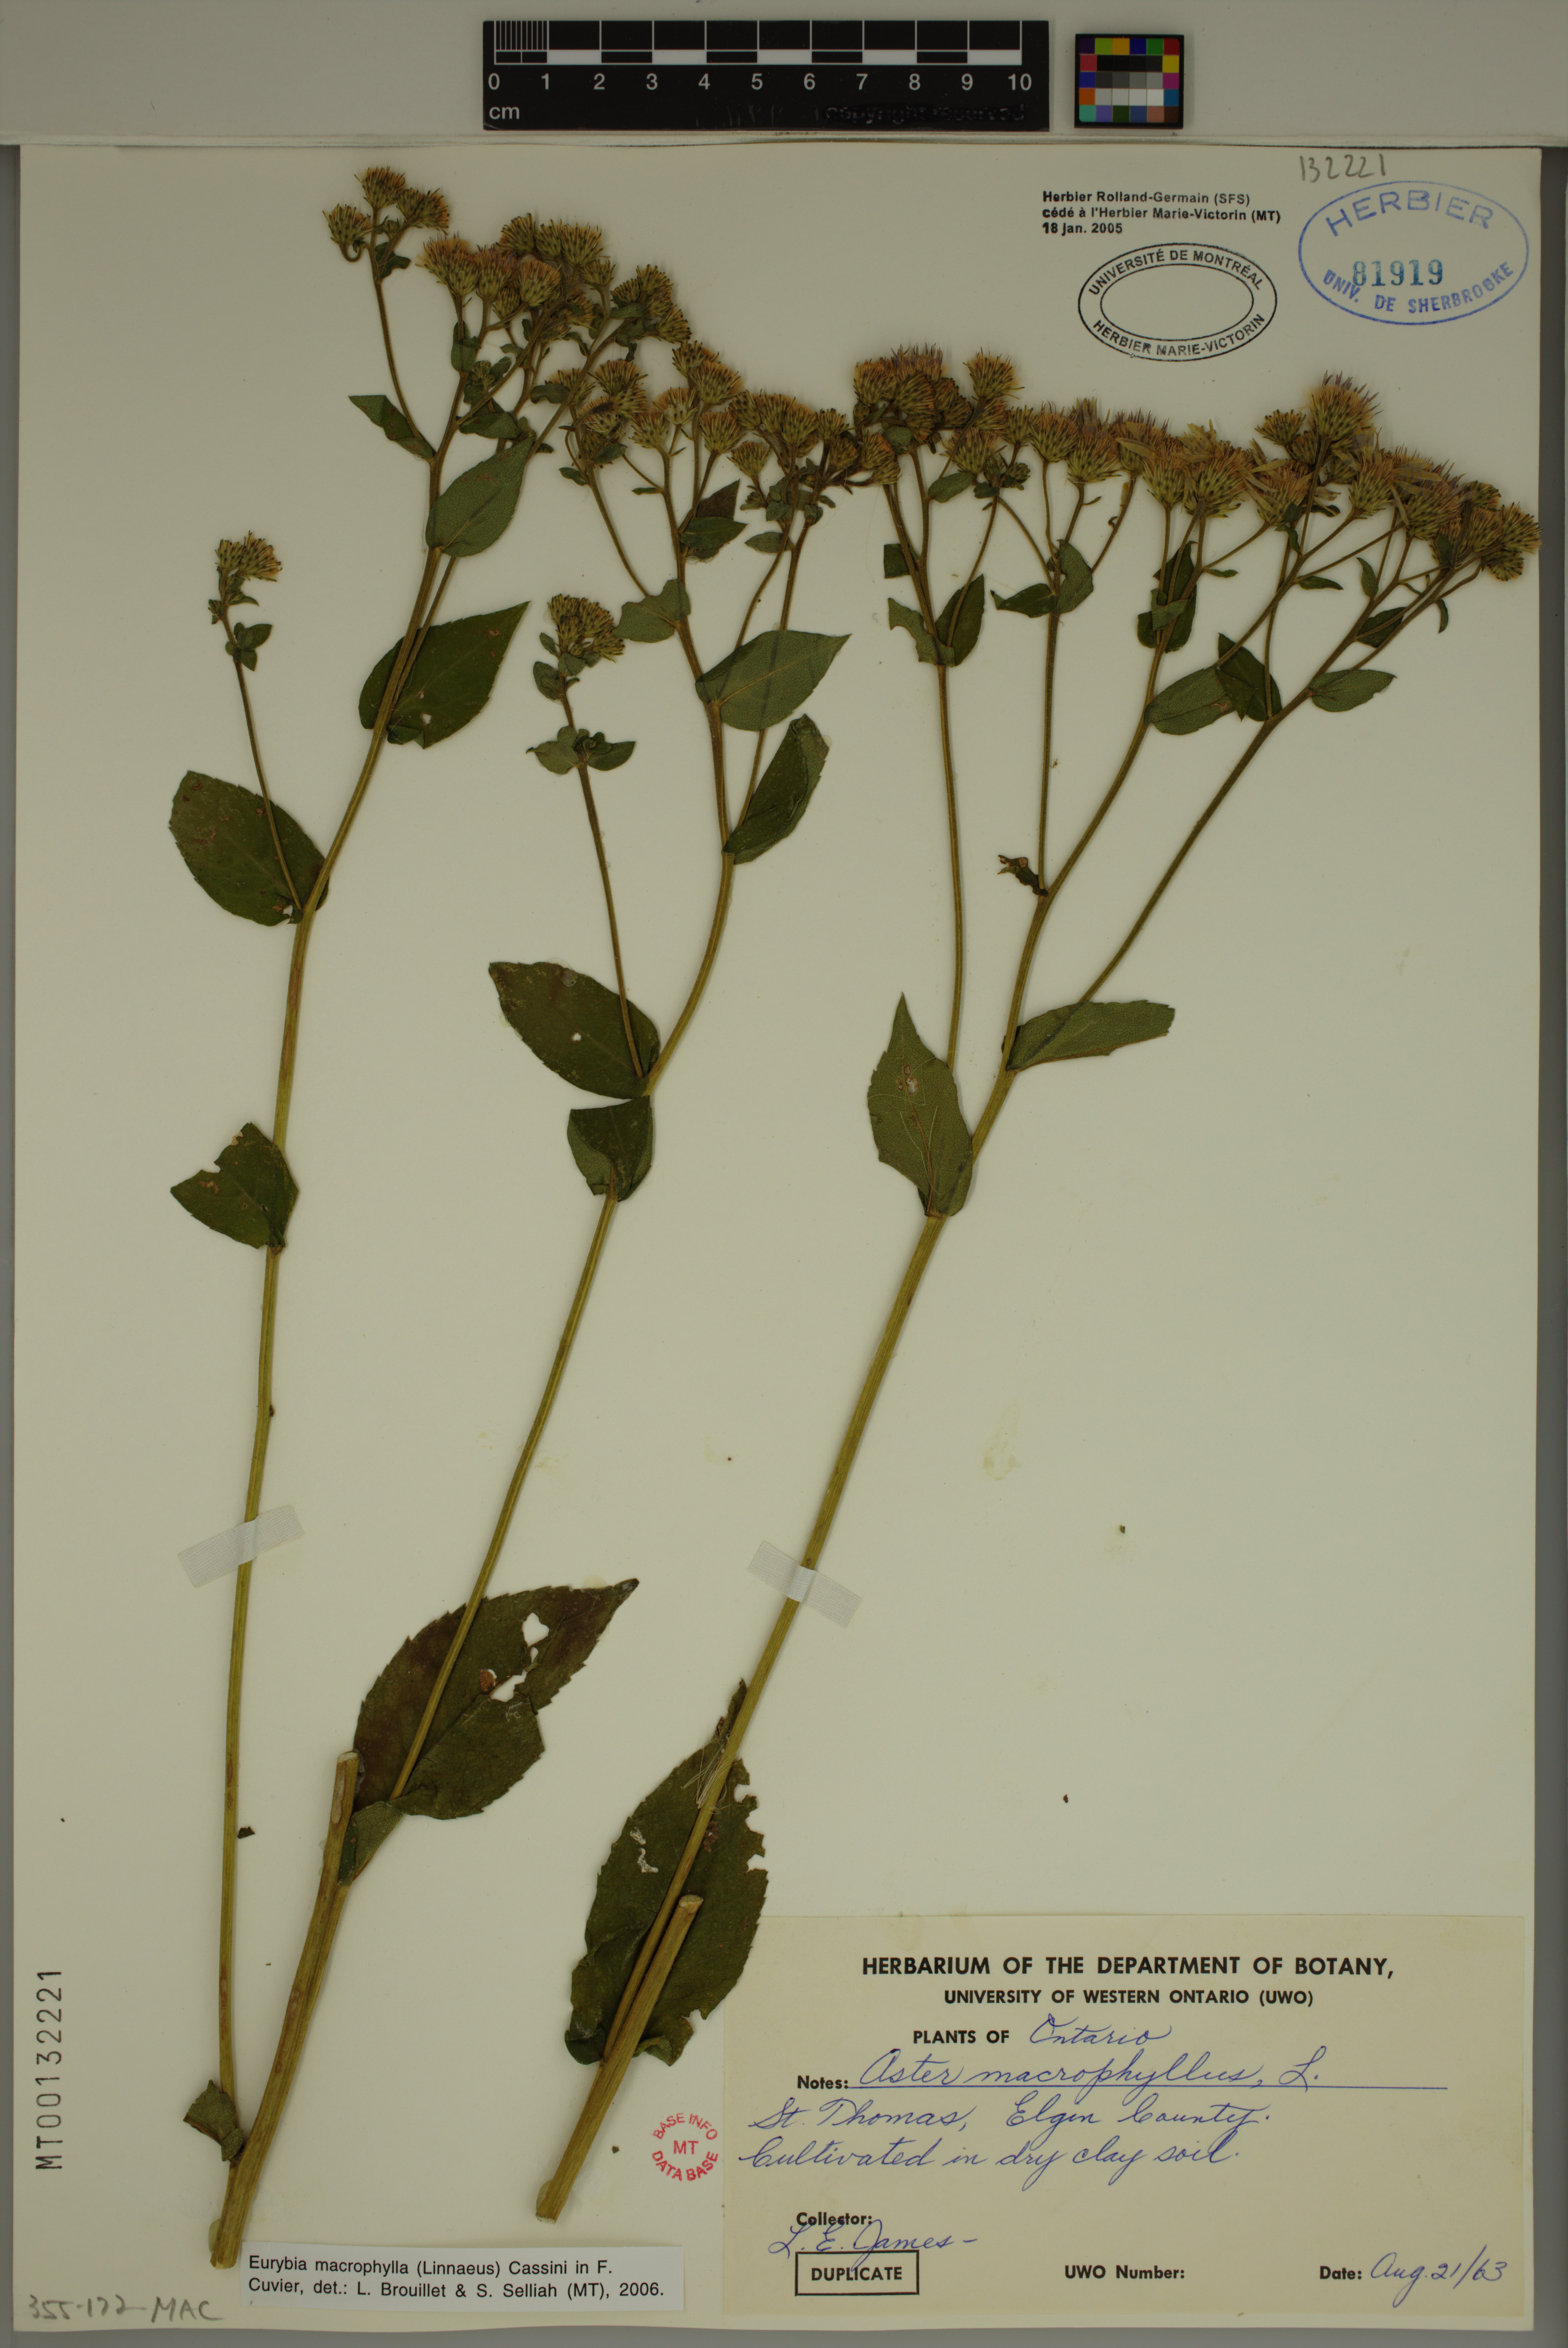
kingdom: Plantae
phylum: Tracheophyta
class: Magnoliopsida
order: Asterales
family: Asteraceae
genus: Eurybia
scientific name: Eurybia macrophylla
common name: Big-leaved aster
